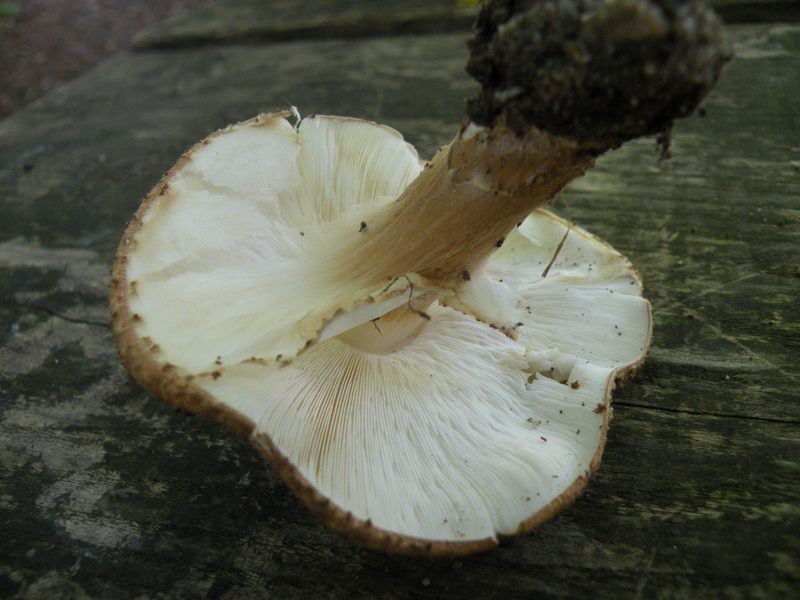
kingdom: Fungi
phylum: Basidiomycota
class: Agaricomycetes
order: Agaricales
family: Agaricaceae
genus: Echinoderma
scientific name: Echinoderma asperum
